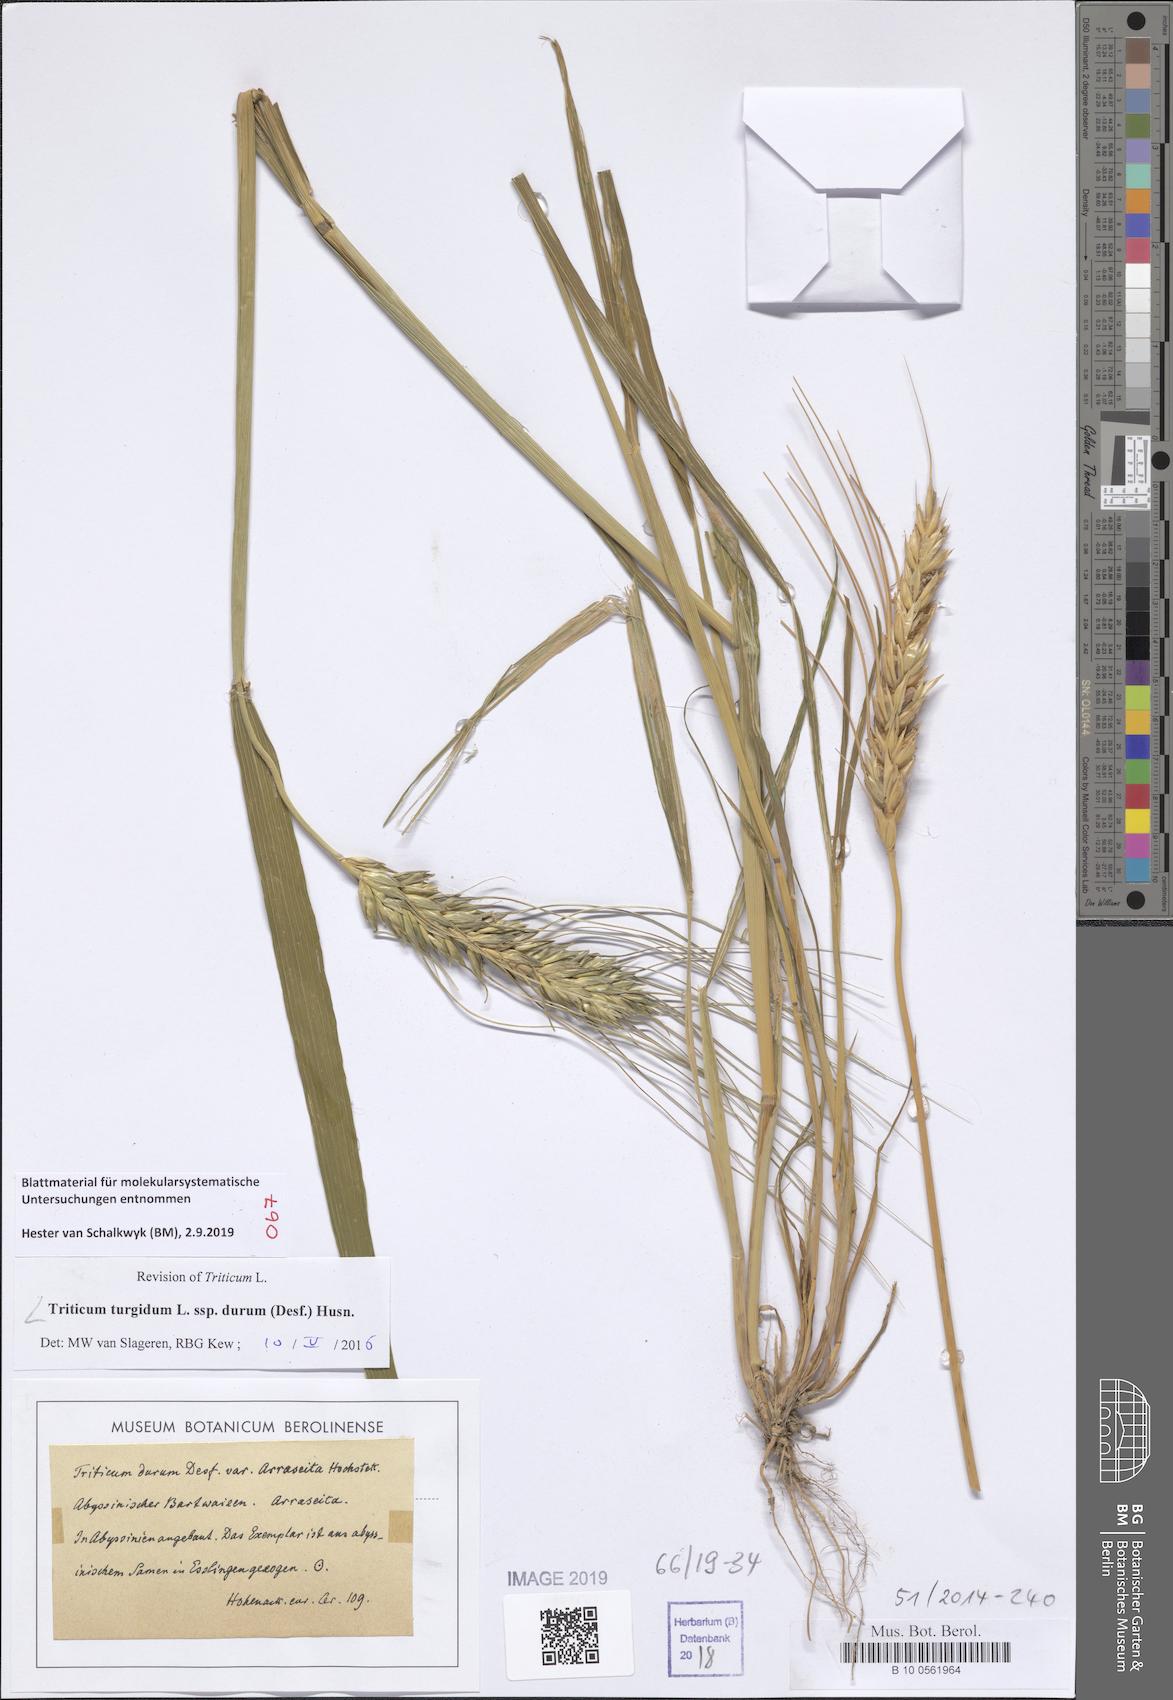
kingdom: Plantae
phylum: Tracheophyta
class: Liliopsida
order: Poales
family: Poaceae
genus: Triticum
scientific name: Triticum turgidum
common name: Rivet wheat
